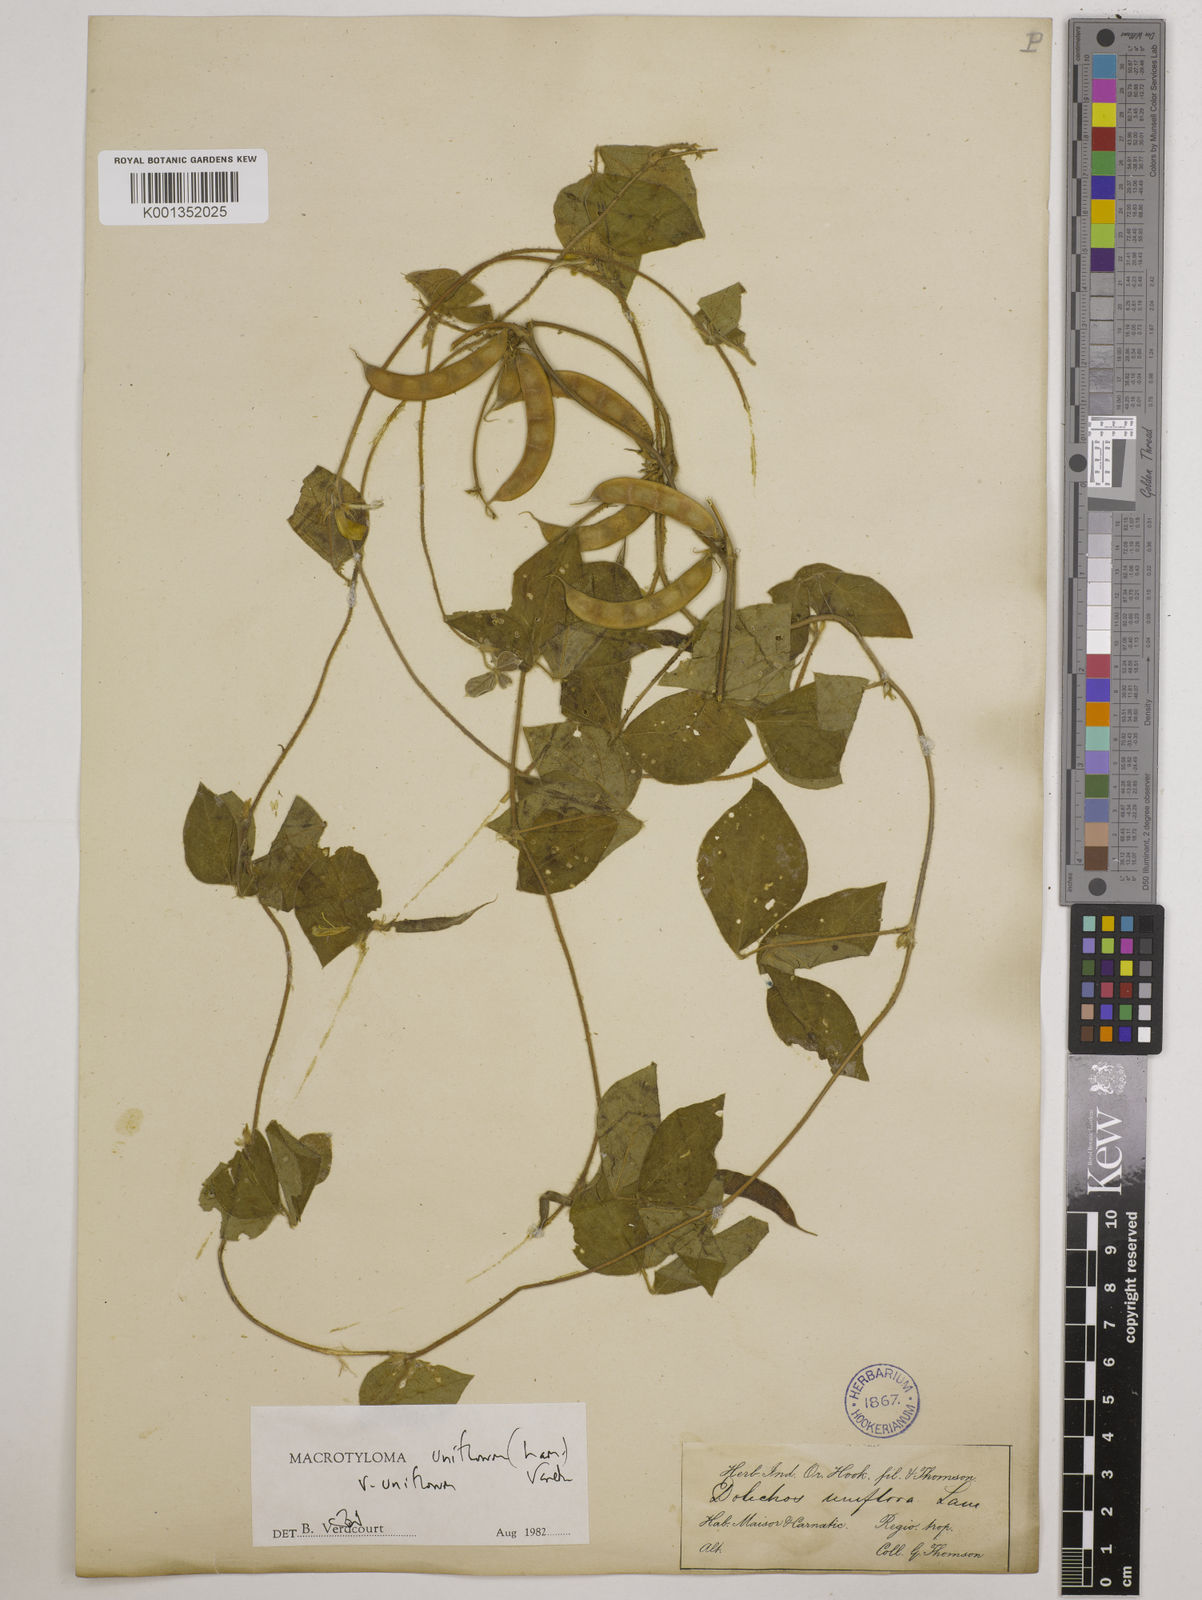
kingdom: Plantae
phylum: Tracheophyta
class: Magnoliopsida
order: Fabales
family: Fabaceae
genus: Macrotyloma
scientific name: Macrotyloma uniflorum
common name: Horse gram
